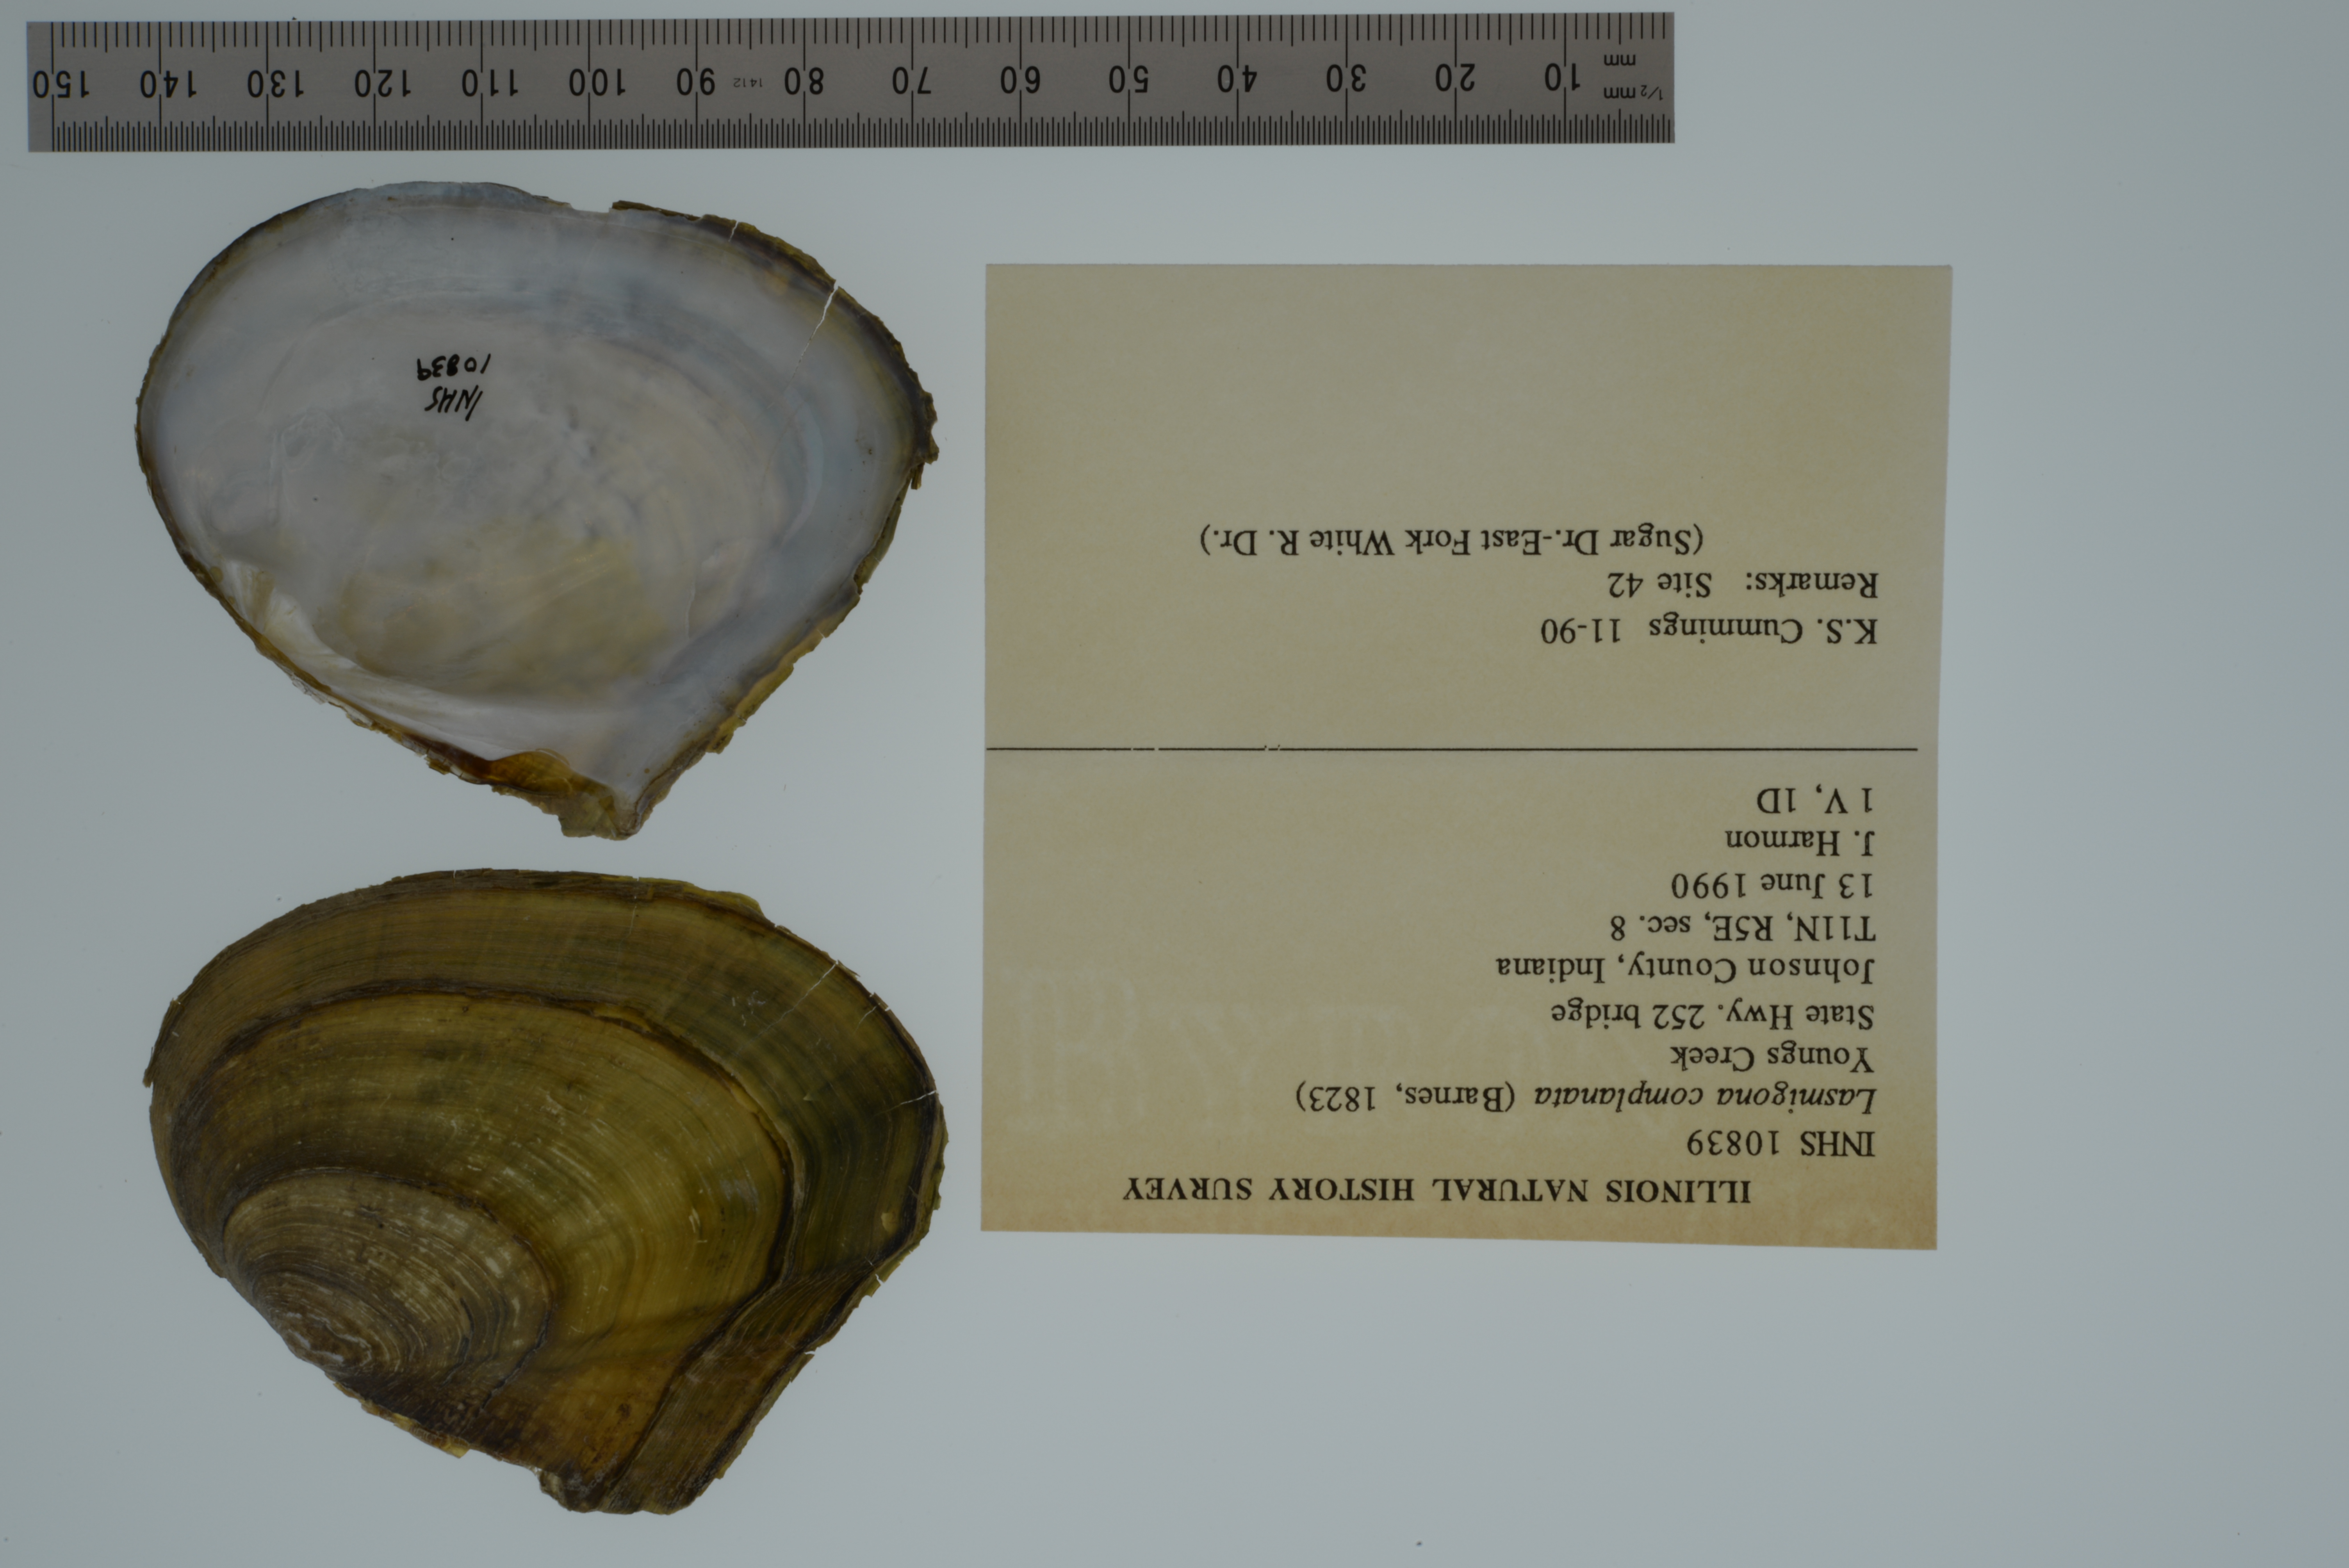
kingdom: Animalia
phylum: Mollusca
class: Bivalvia
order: Unionida
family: Unionidae
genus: Lasmigona
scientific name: Lasmigona complanata
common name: White heelsplitter
